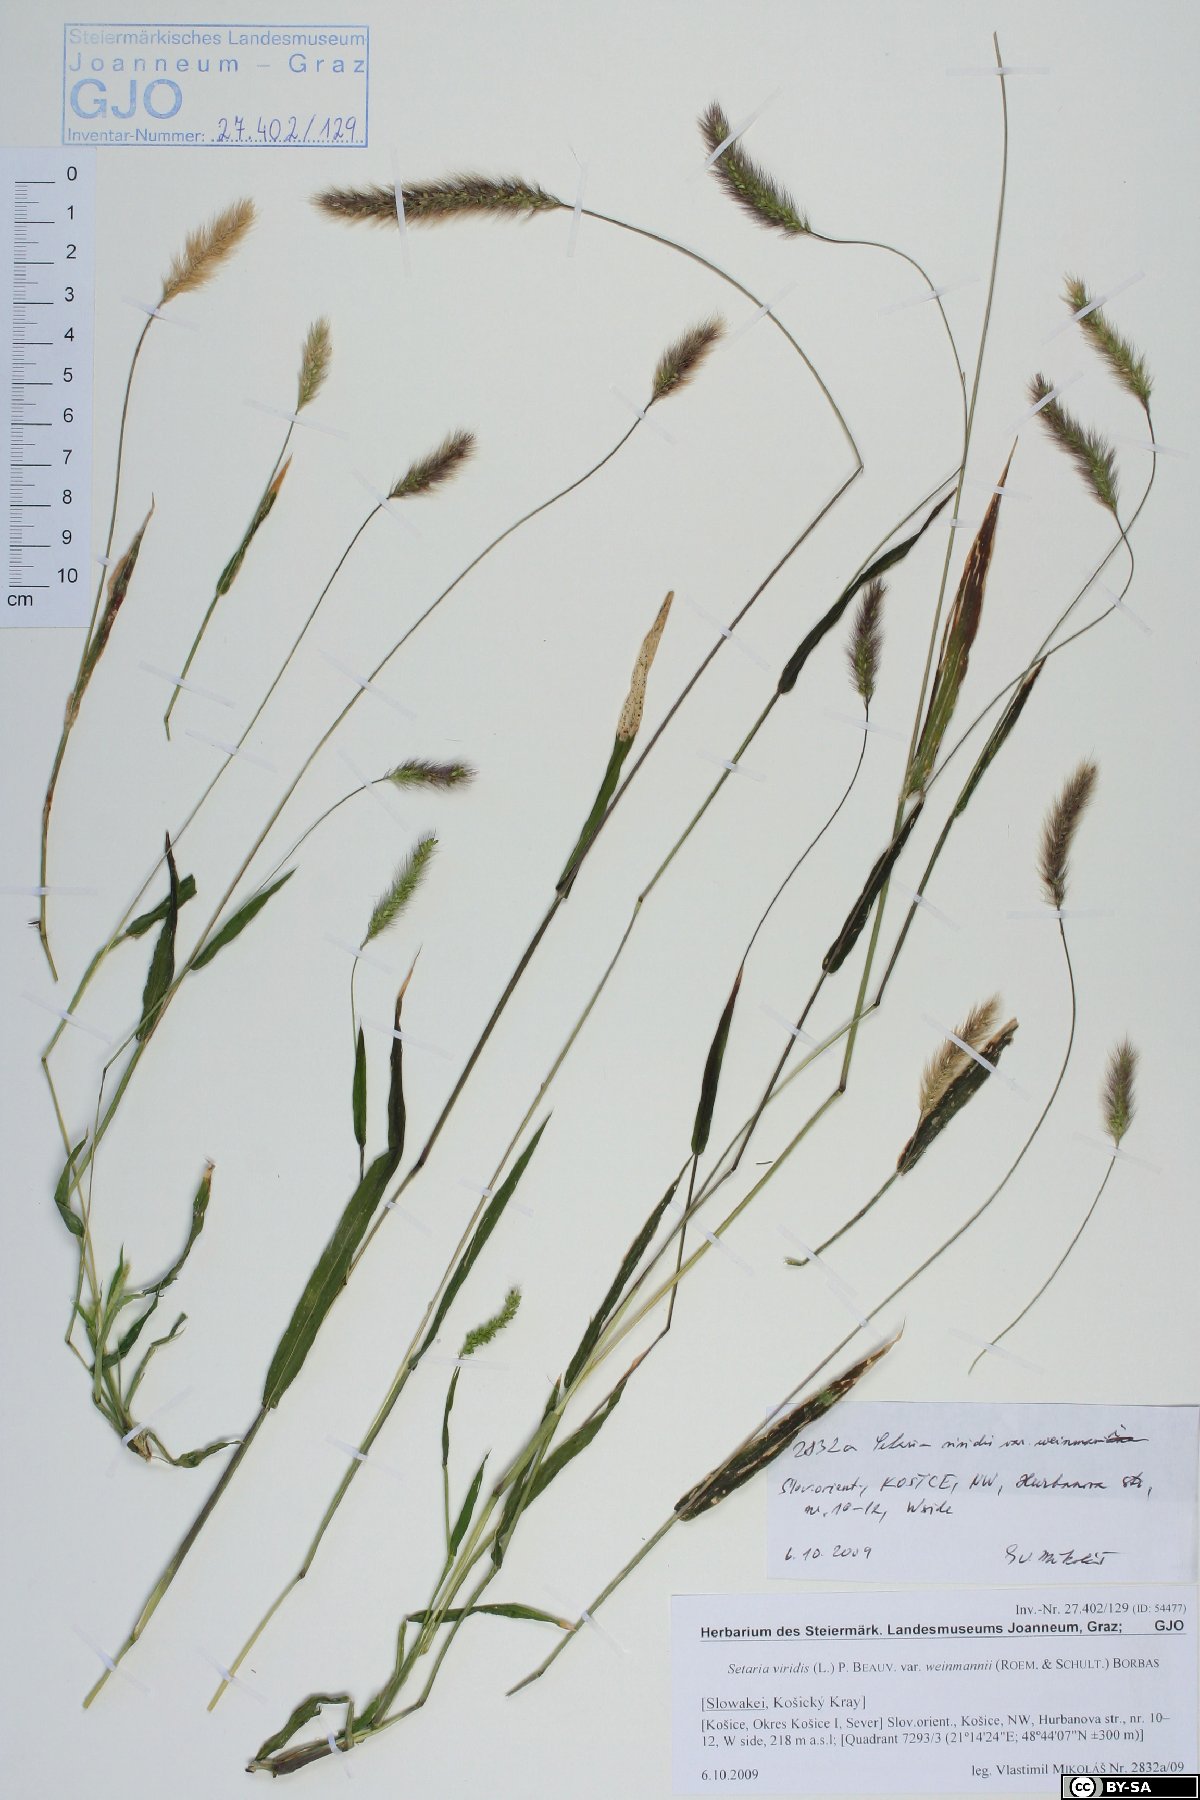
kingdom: Plantae
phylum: Tracheophyta
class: Liliopsida
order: Poales
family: Poaceae
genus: Setaria
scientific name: Setaria viridis
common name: Green bristlegrass
